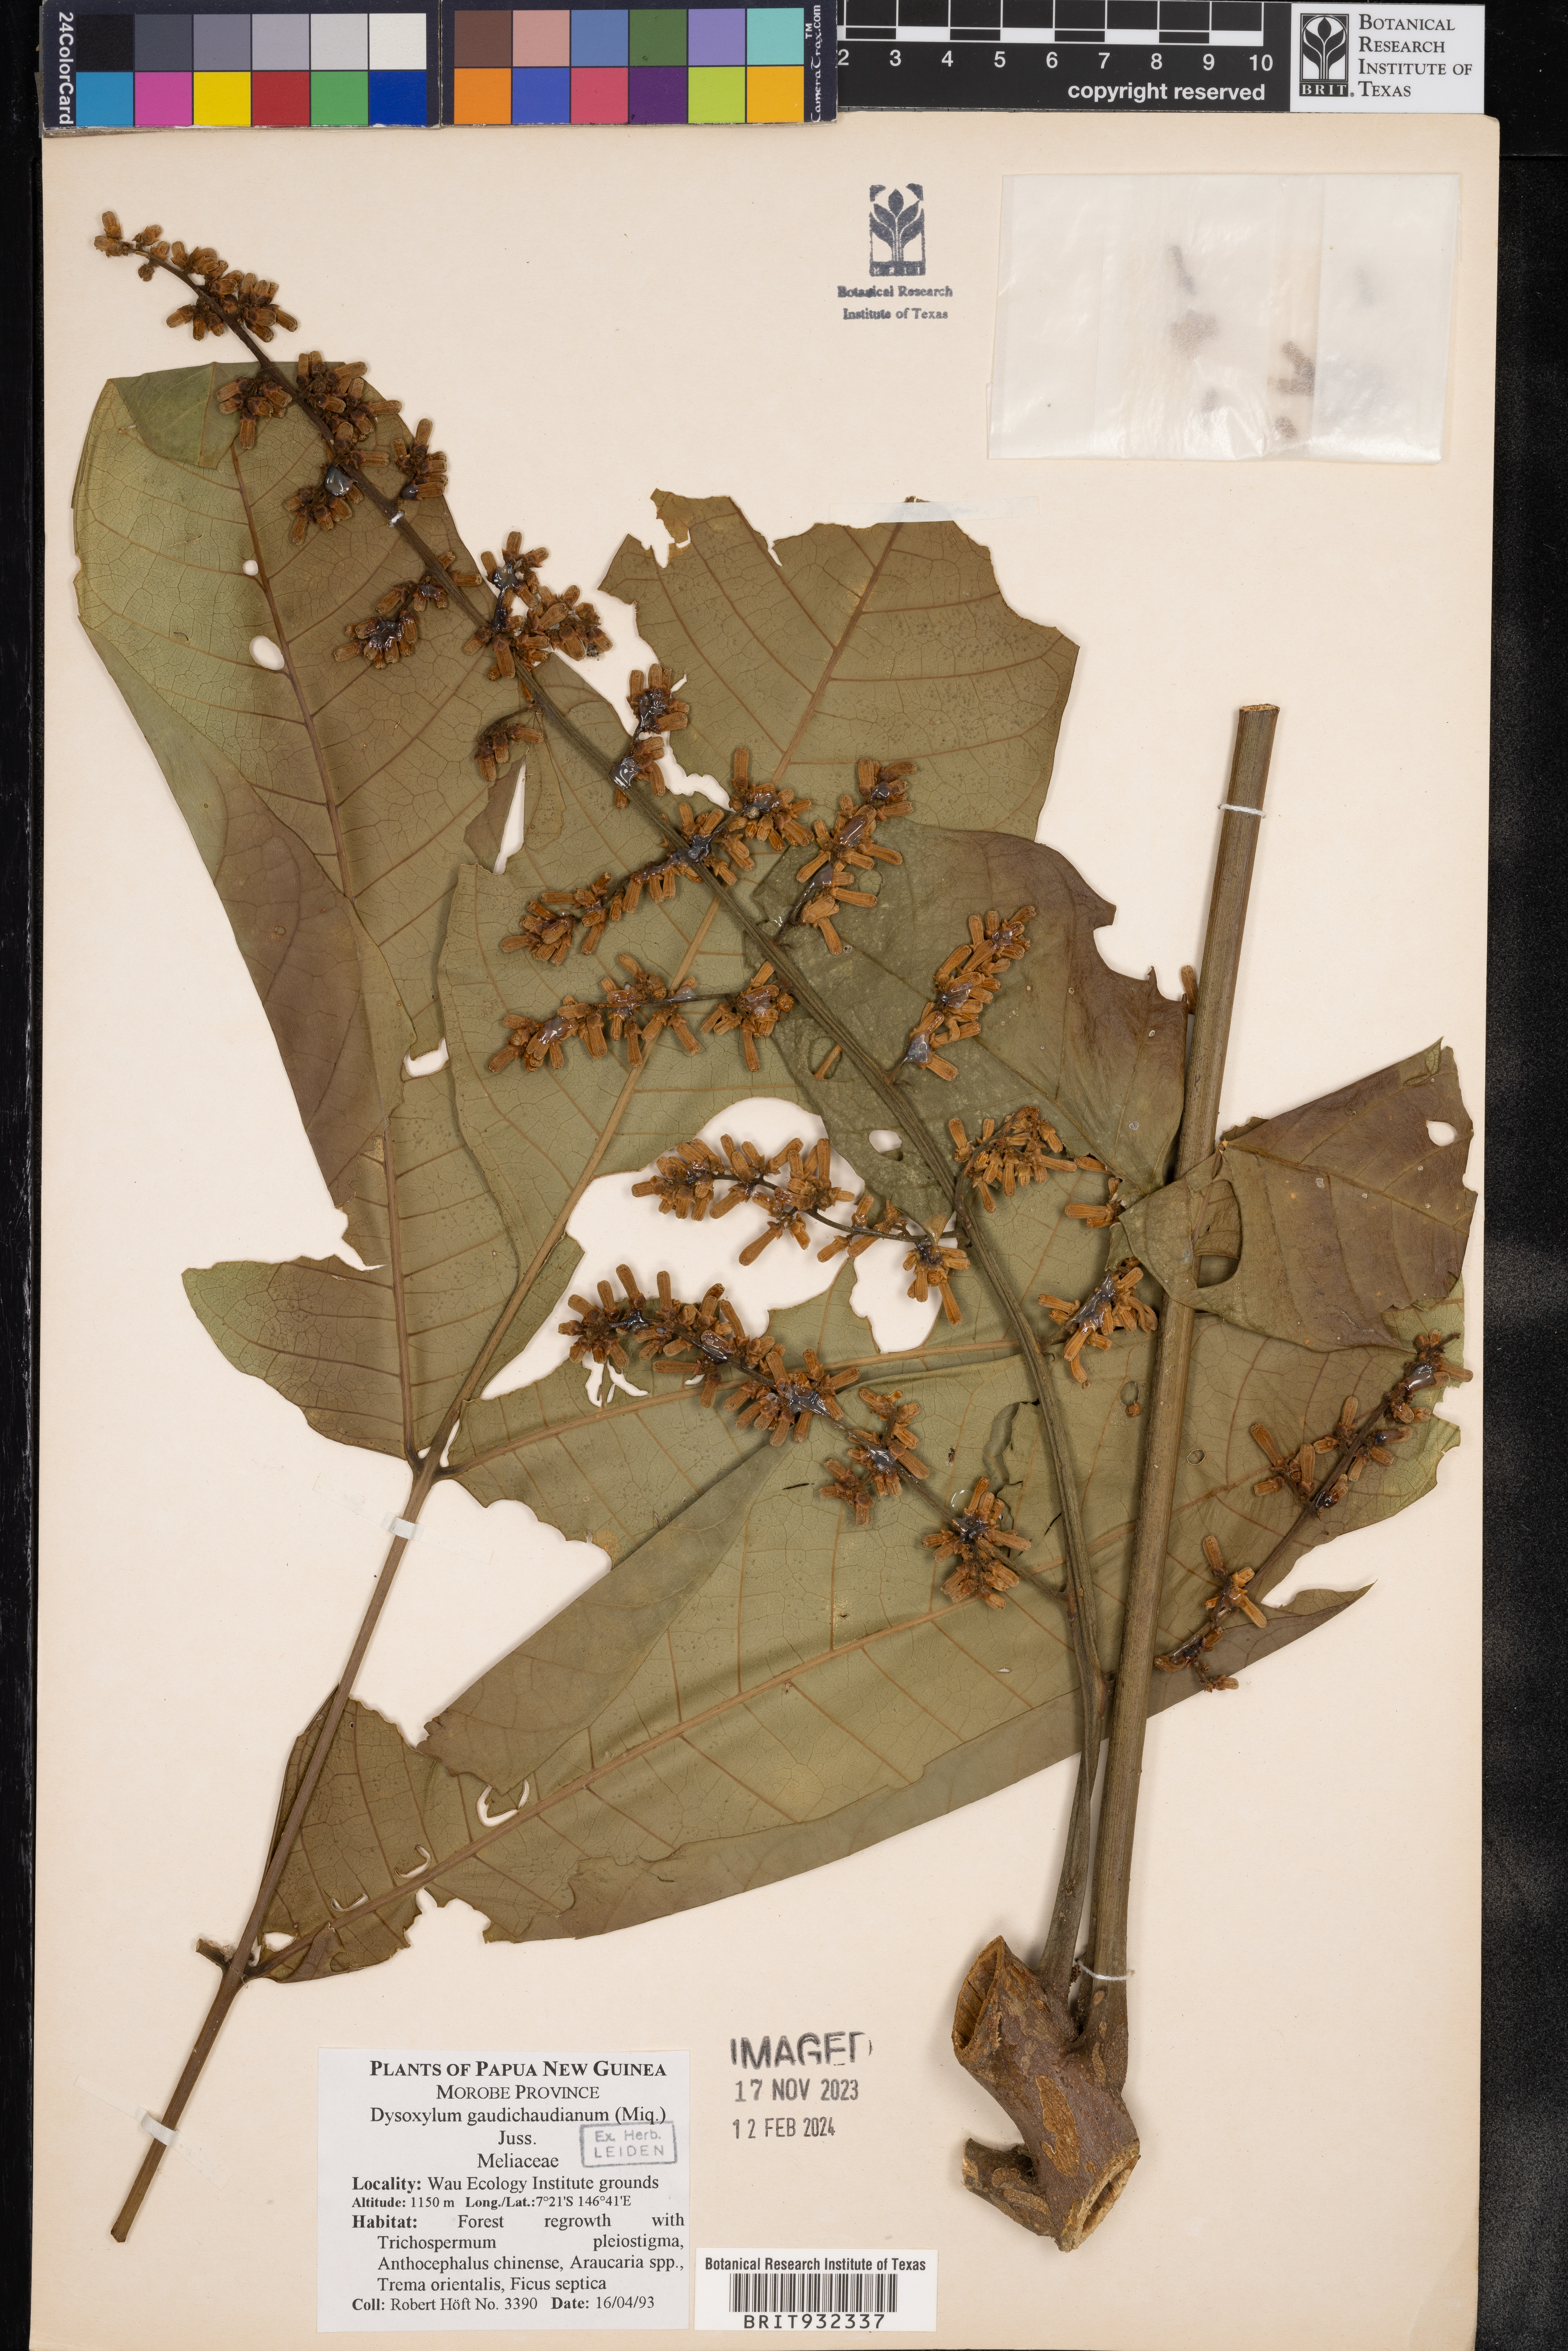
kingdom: Plantae
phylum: Tracheophyta
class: Magnoliopsida
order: Sapindales
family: Meliaceae
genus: Dysoxylum
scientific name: Dysoxylum
